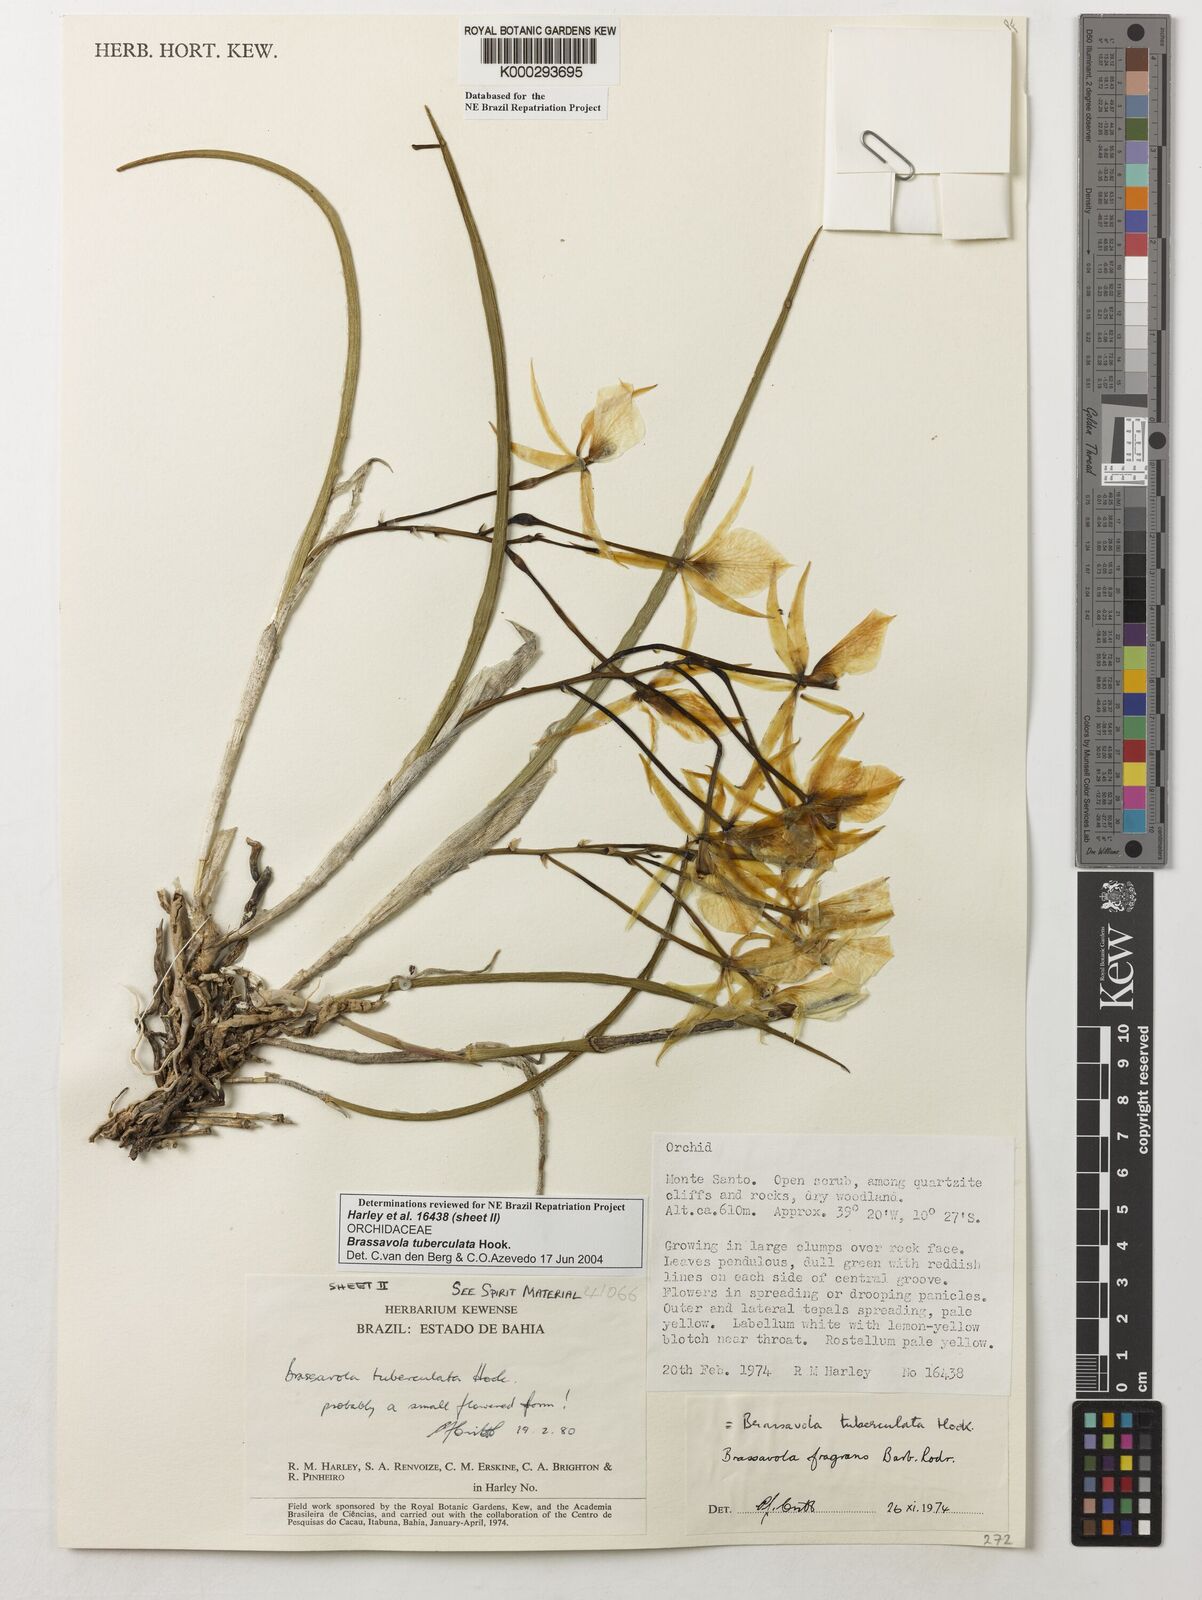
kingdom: Plantae
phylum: Tracheophyta
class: Liliopsida
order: Asparagales
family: Orchidaceae
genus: Brassavola
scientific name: Brassavola tuberculata
